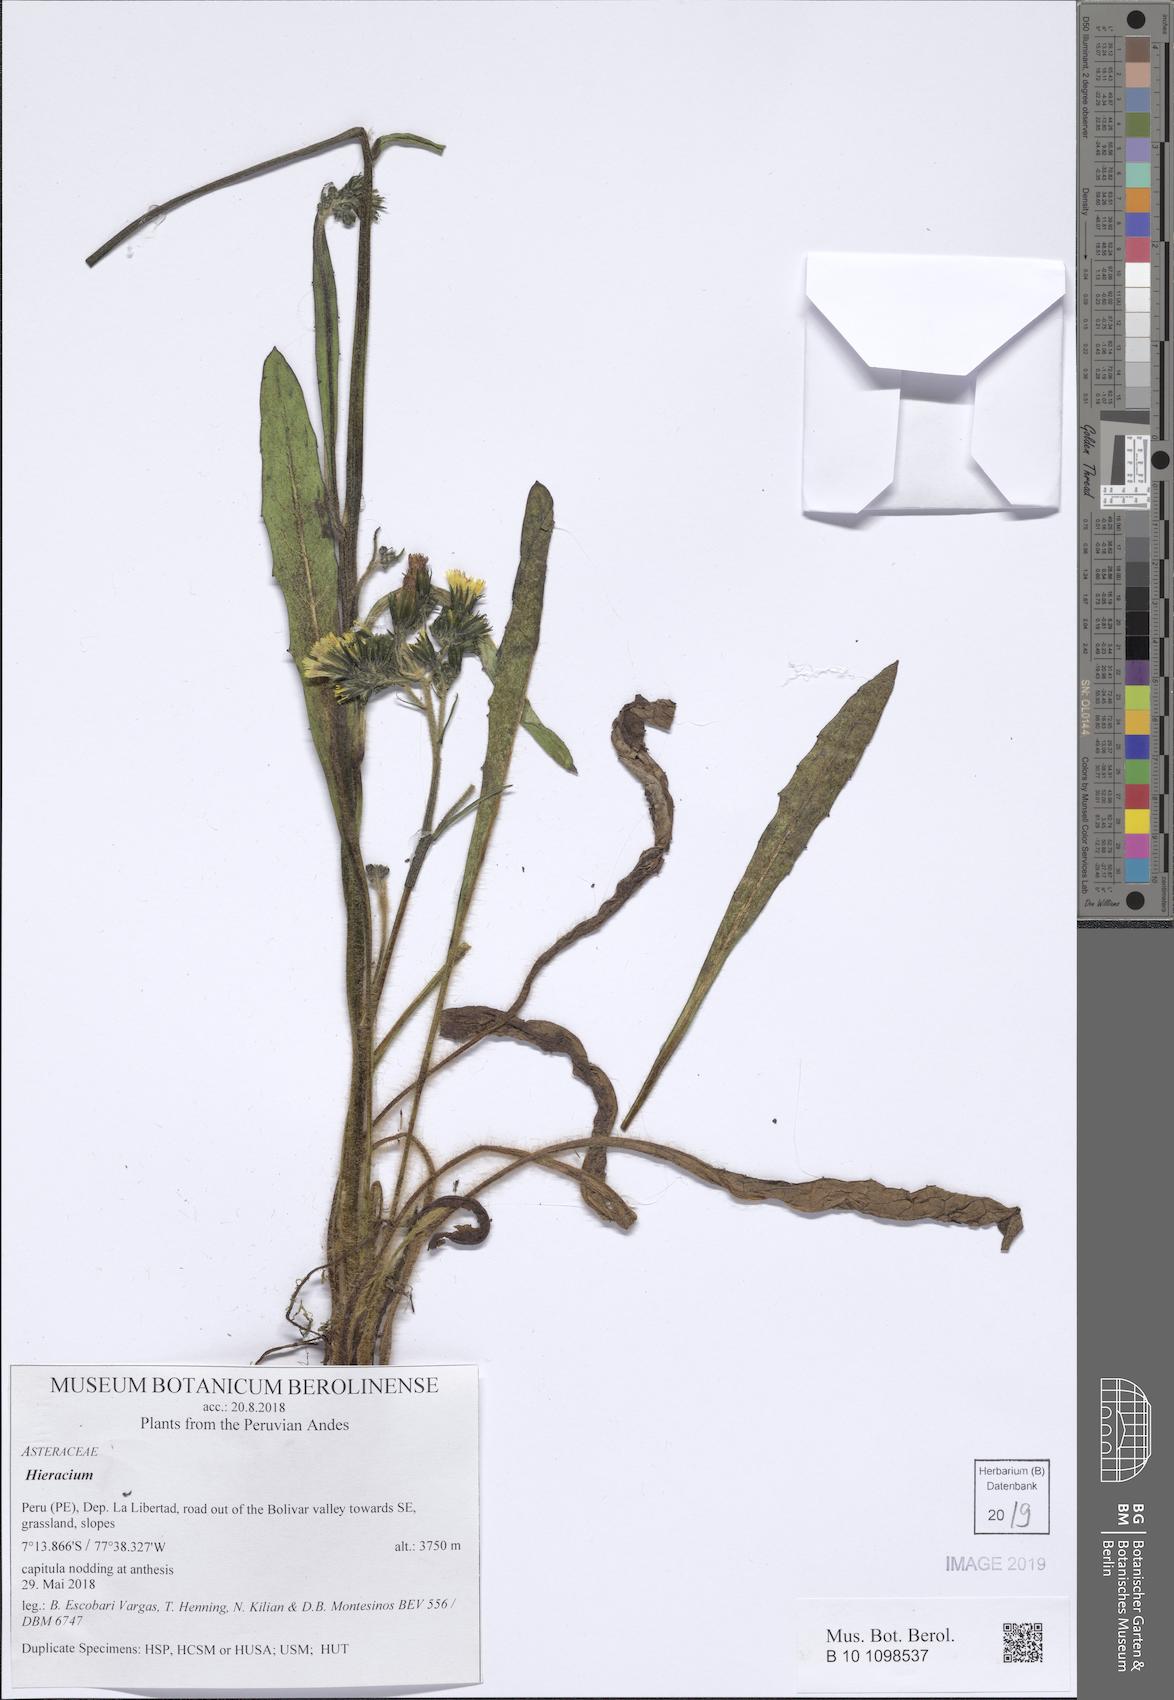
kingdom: Plantae
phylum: Tracheophyta
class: Magnoliopsida
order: Asterales
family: Asteraceae
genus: Hieracium
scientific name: Hieracium
